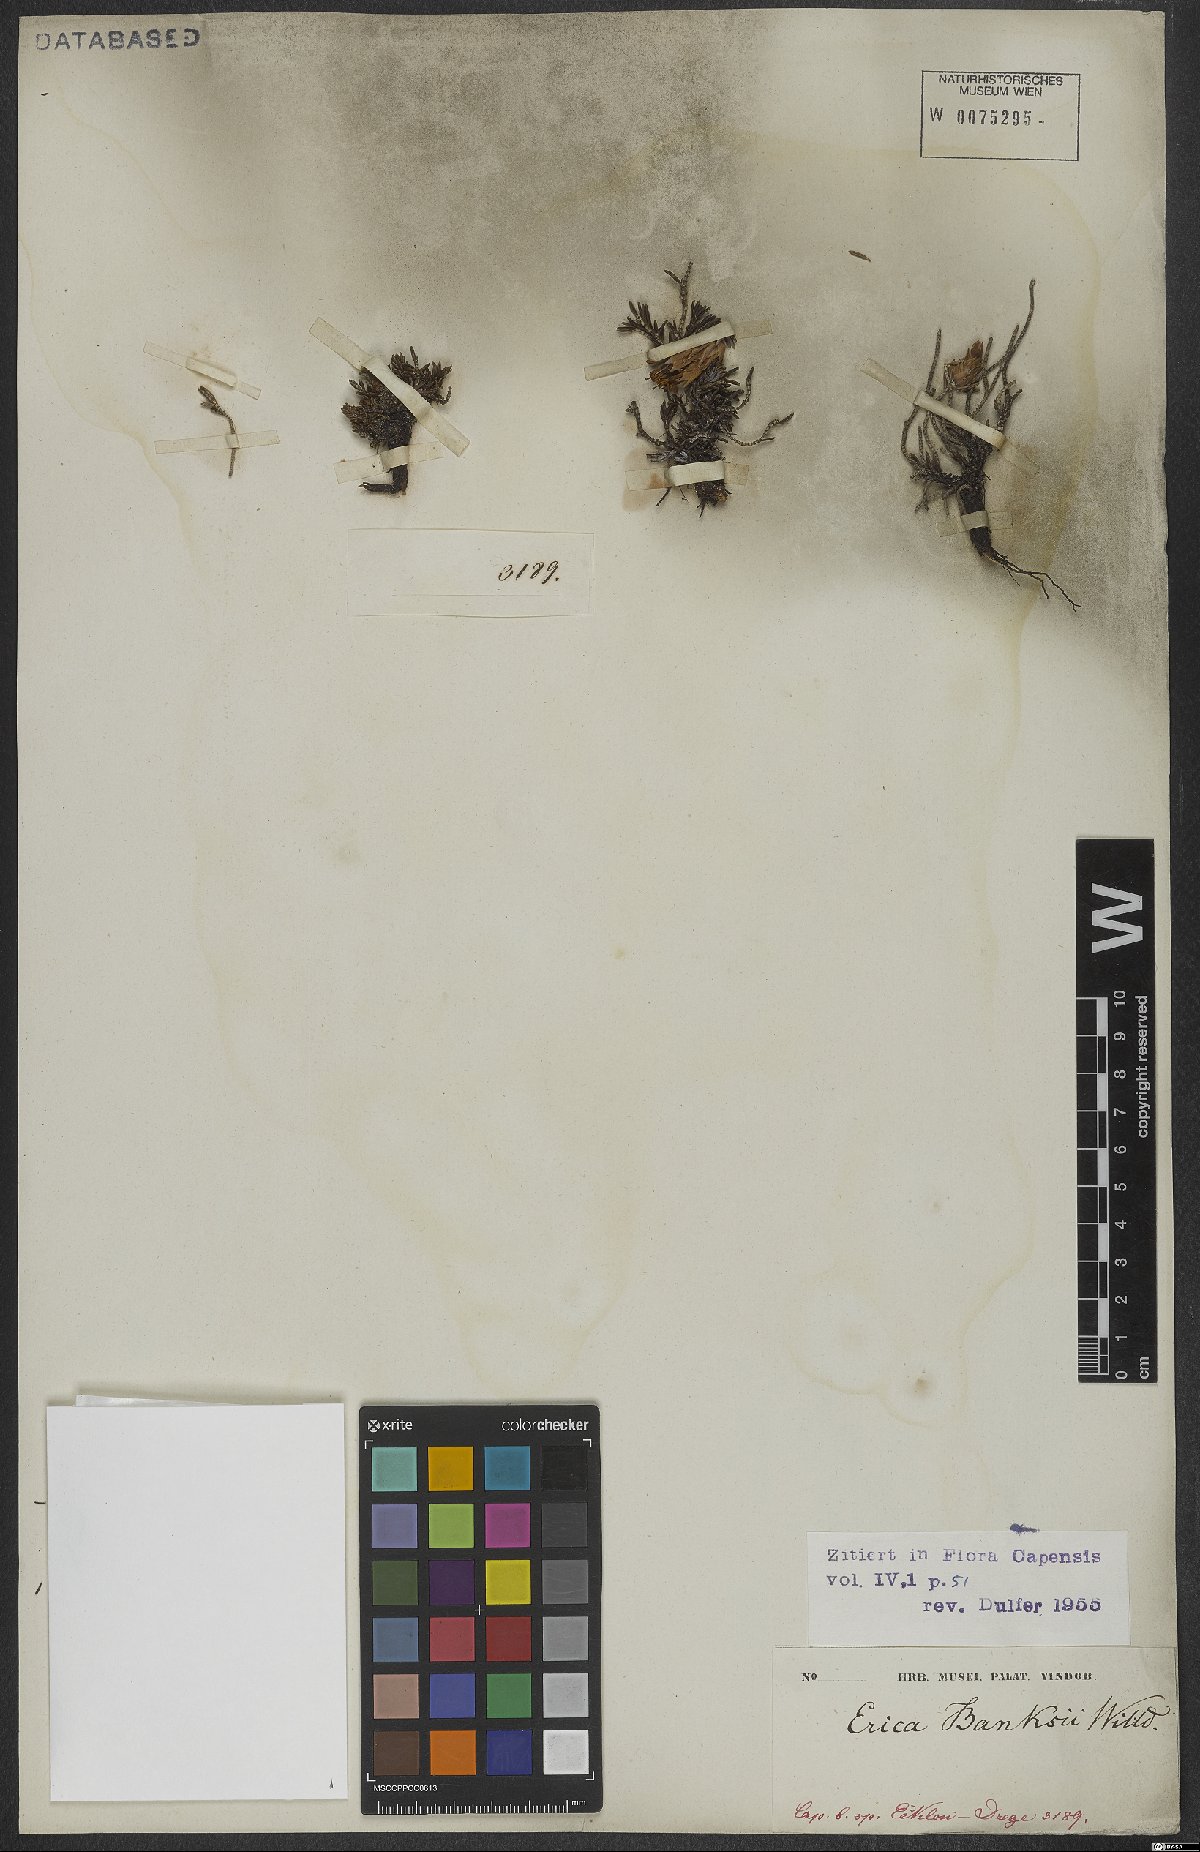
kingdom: Plantae
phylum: Tracheophyta
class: Magnoliopsida
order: Ericales
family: Ericaceae
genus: Erica
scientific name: Erica banksia
